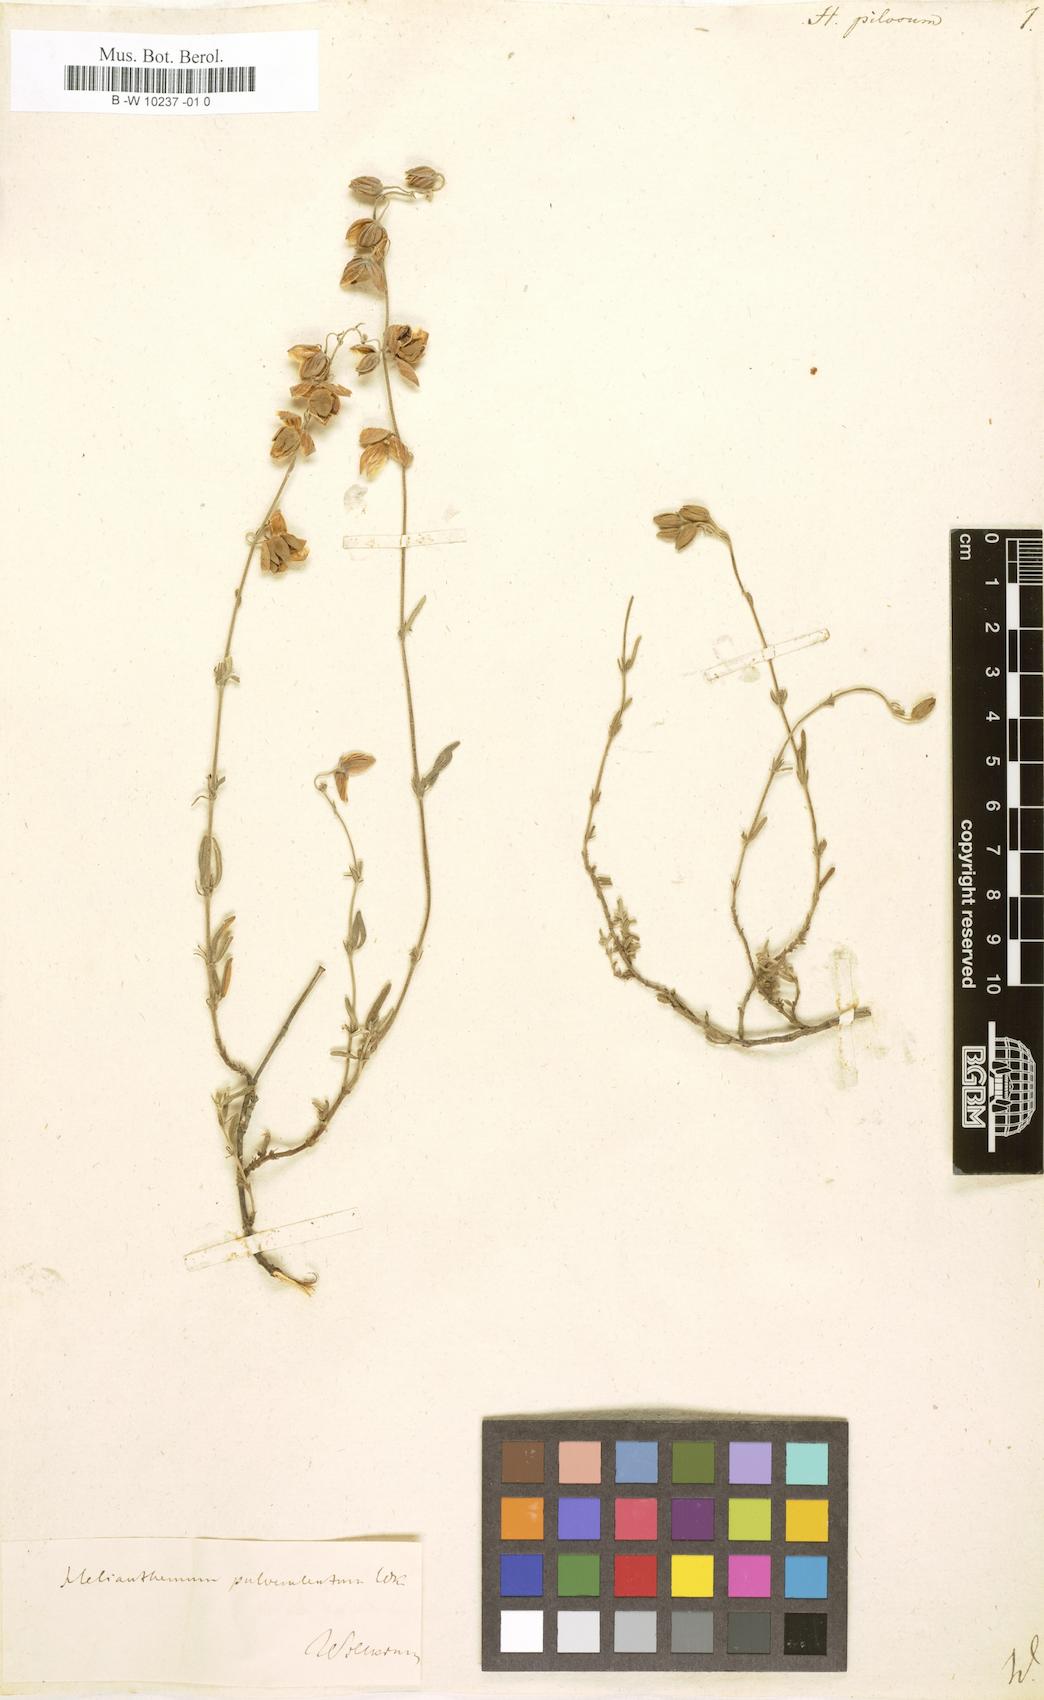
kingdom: Plantae
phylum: Tracheophyta
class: Magnoliopsida
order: Malvales
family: Cistaceae
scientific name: Cistaceae
